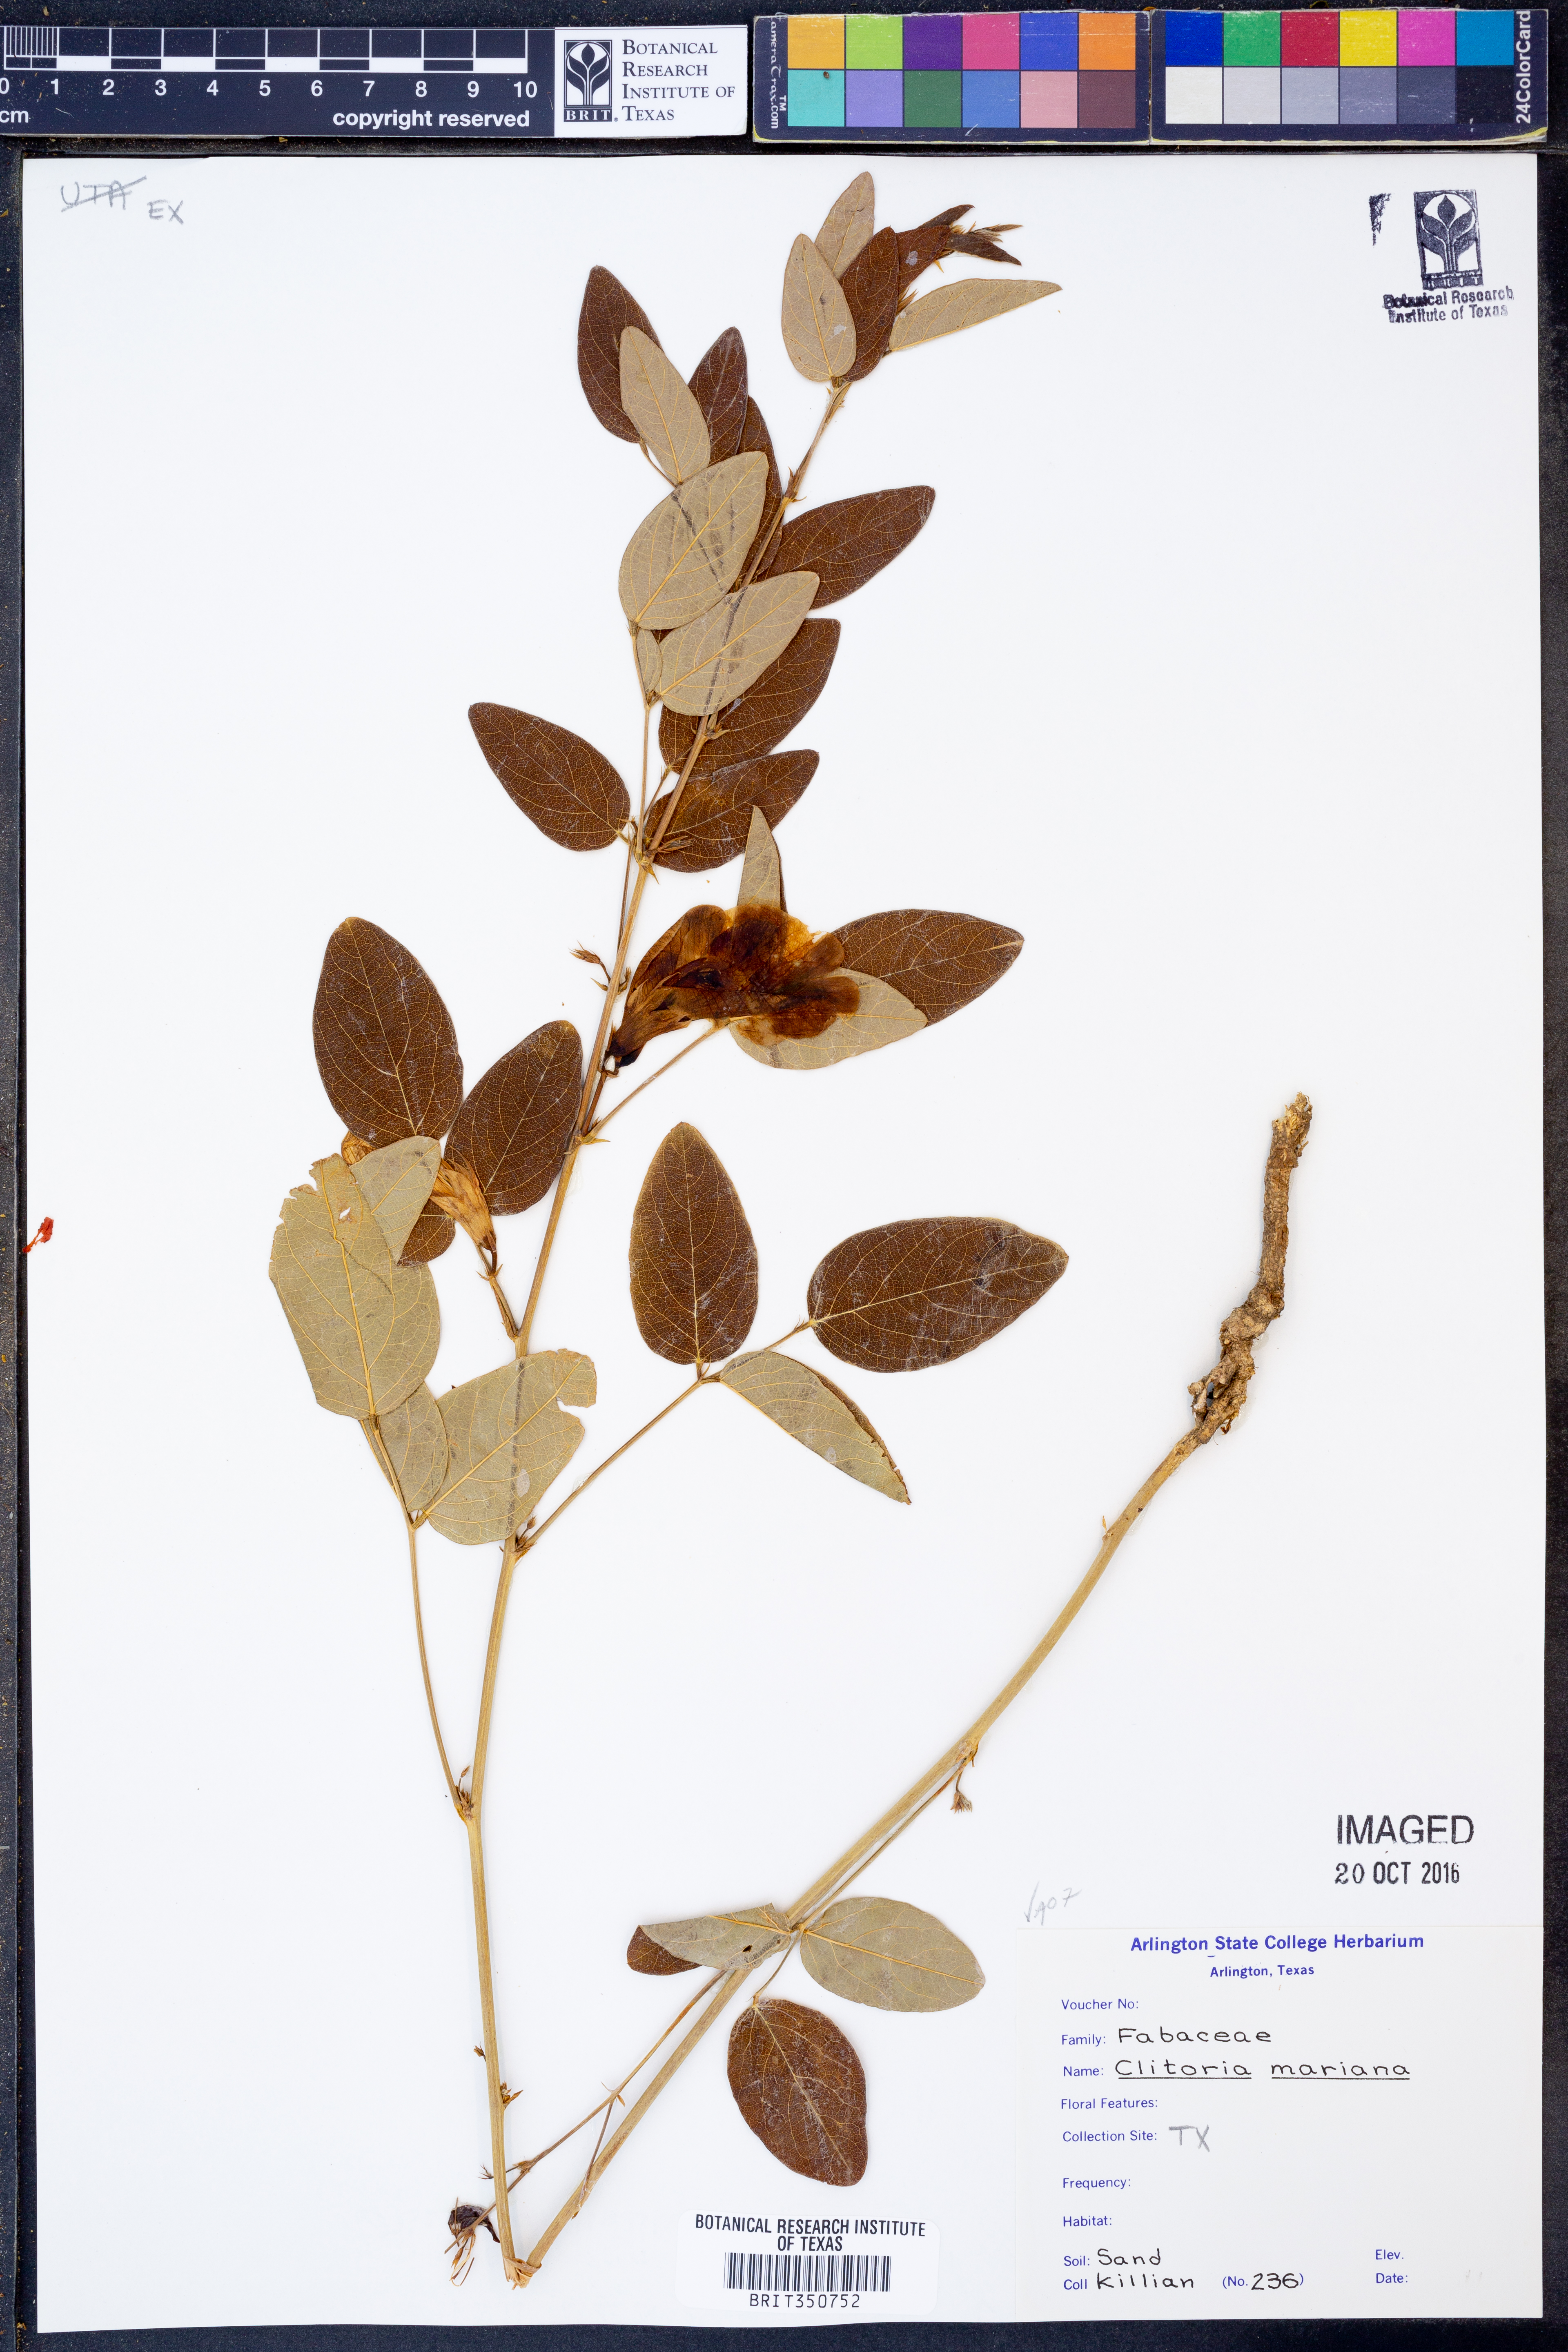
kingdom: Plantae
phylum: Tracheophyta
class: Magnoliopsida
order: Fabales
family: Fabaceae
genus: Clitoria
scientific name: Clitoria mariana
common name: Butterfly-pea
